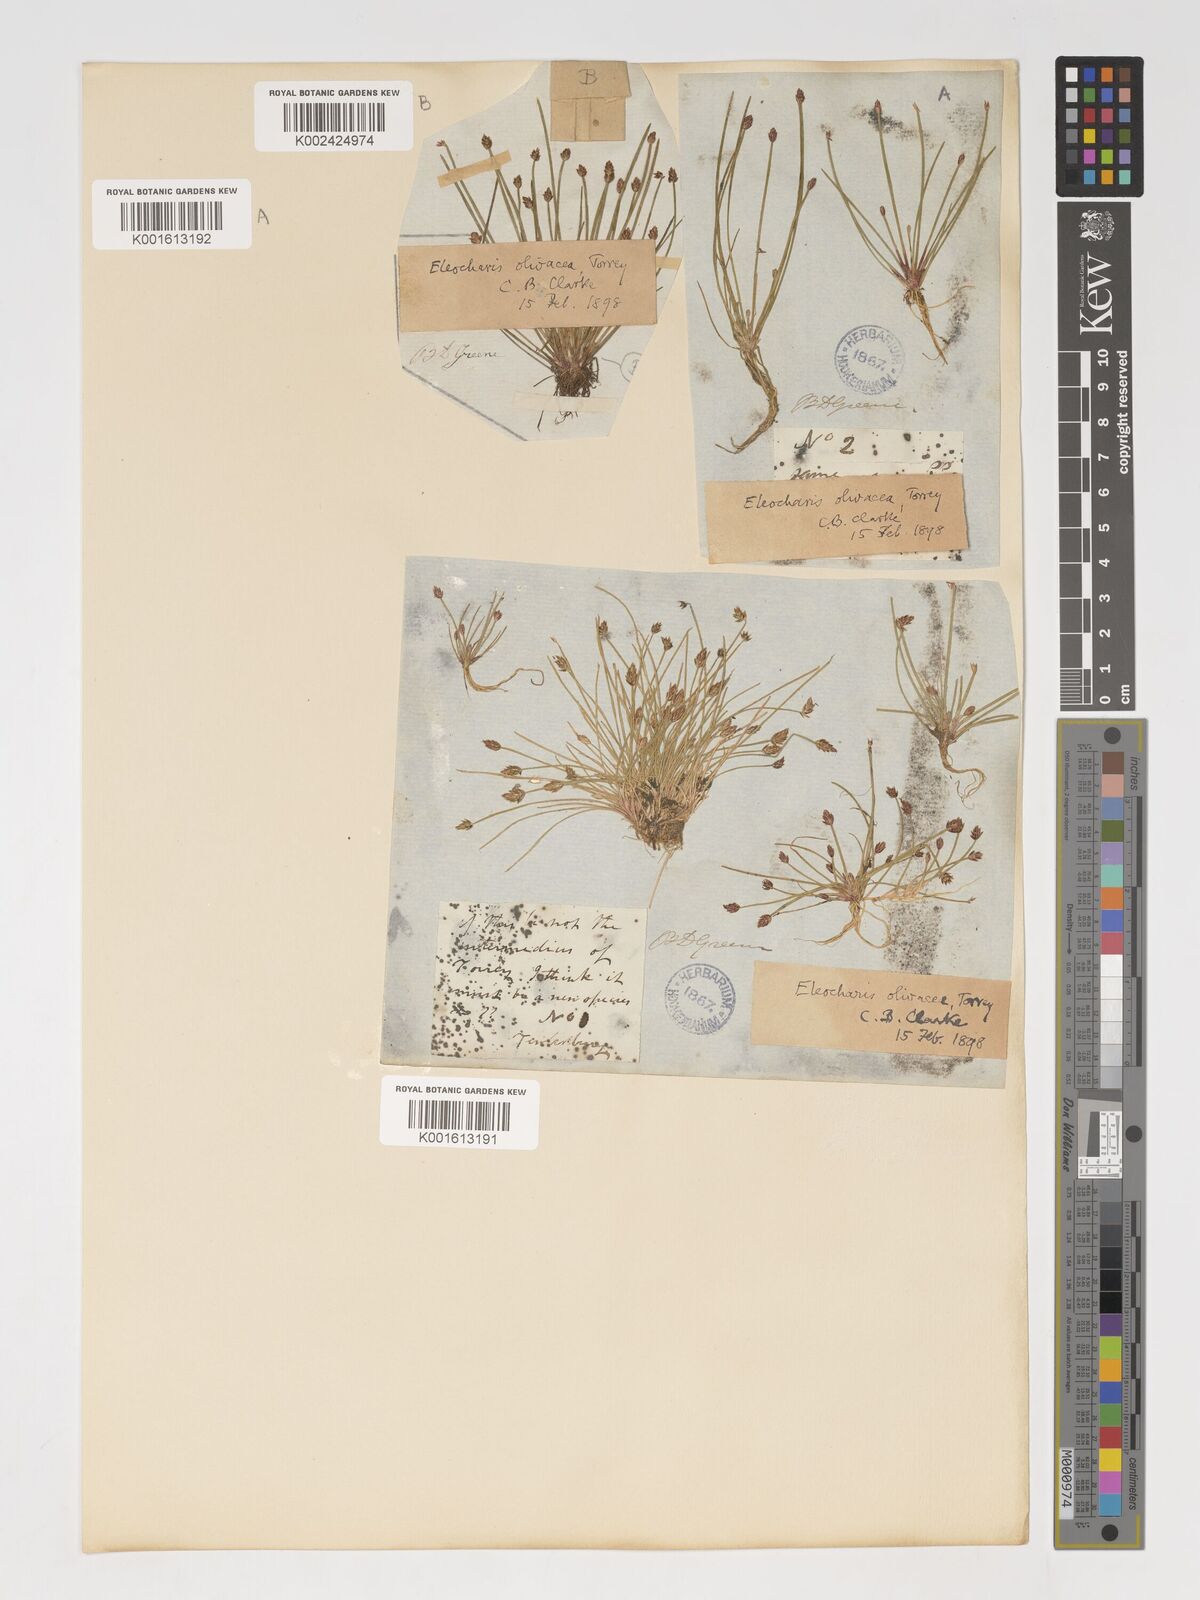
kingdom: Plantae
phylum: Tracheophyta
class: Liliopsida
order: Poales
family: Cyperaceae
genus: Eleocharis
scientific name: Eleocharis flavescens
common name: Yellow spikerush
